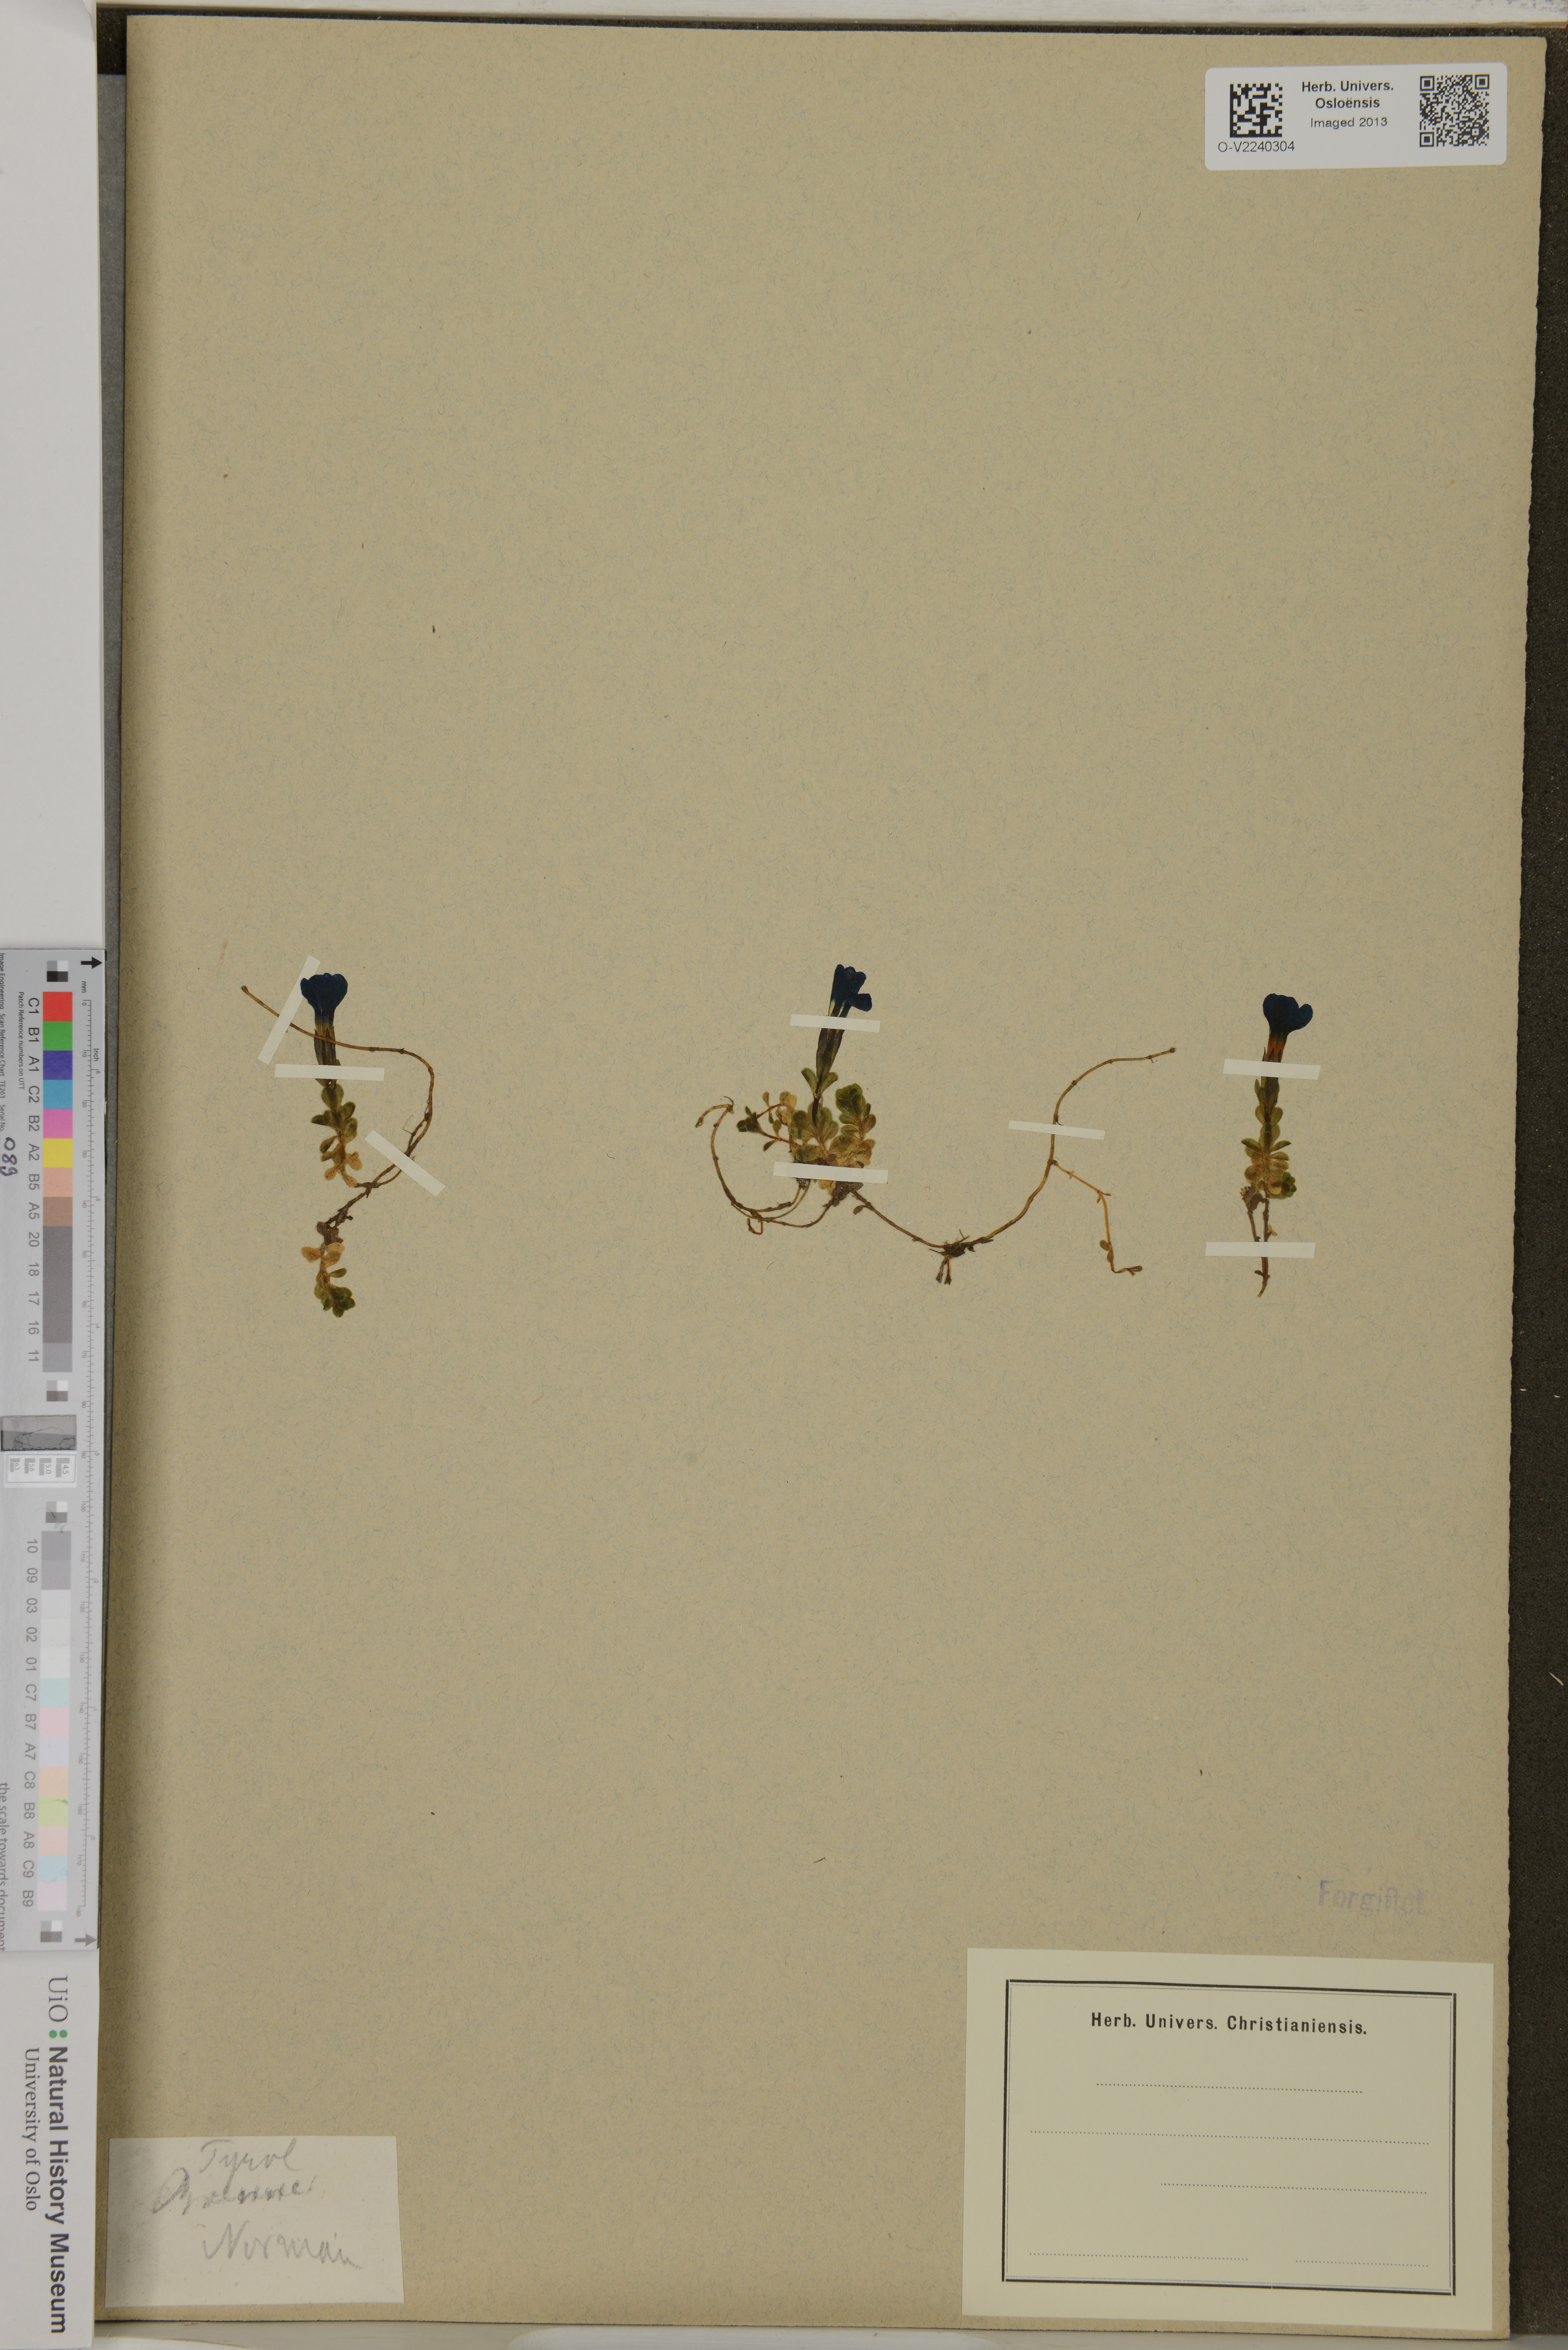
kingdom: Plantae
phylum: Tracheophyta
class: Magnoliopsida
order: Gentianales
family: Gentianaceae
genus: Gentiana
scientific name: Gentiana bavarica
